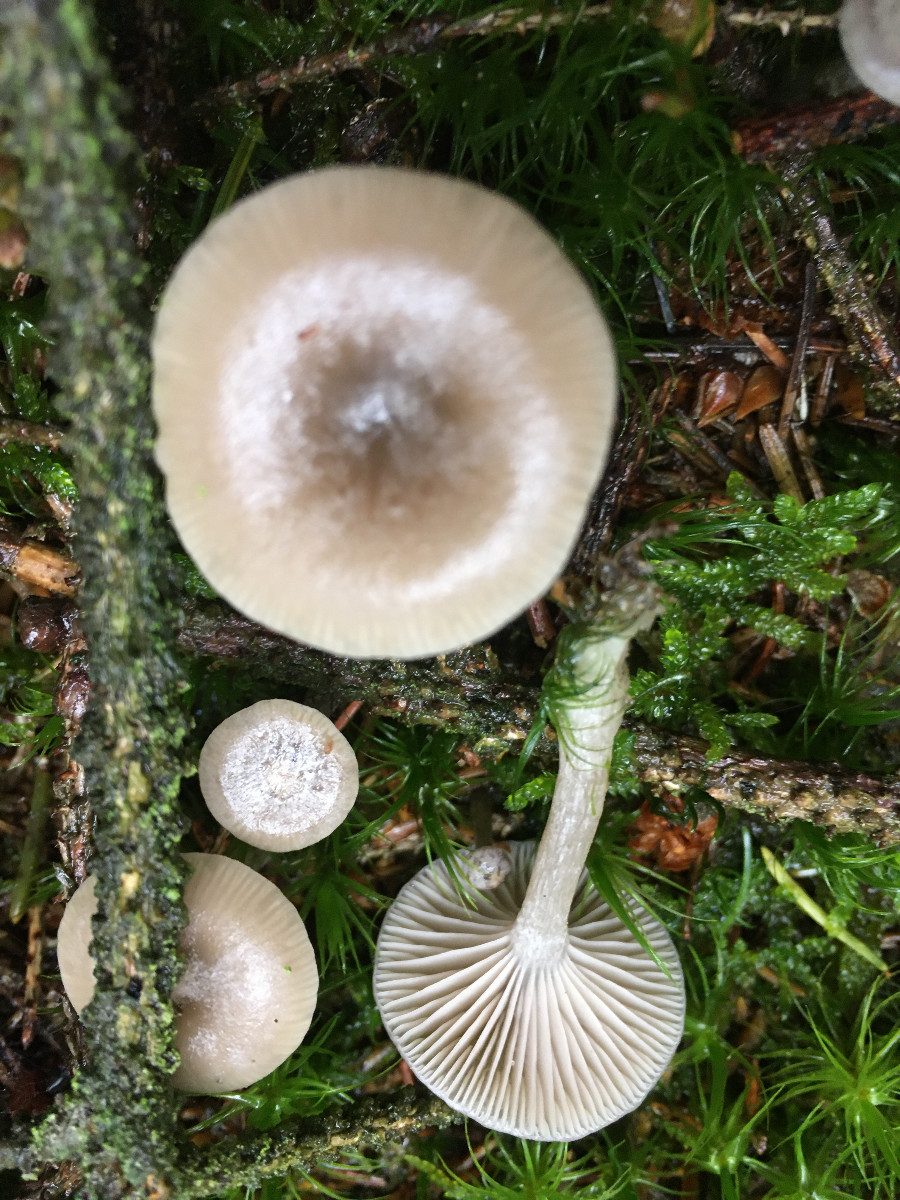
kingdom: Fungi
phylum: Basidiomycota
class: Agaricomycetes
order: Agaricales
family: Tricholomataceae
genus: Clitocybe
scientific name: Clitocybe
